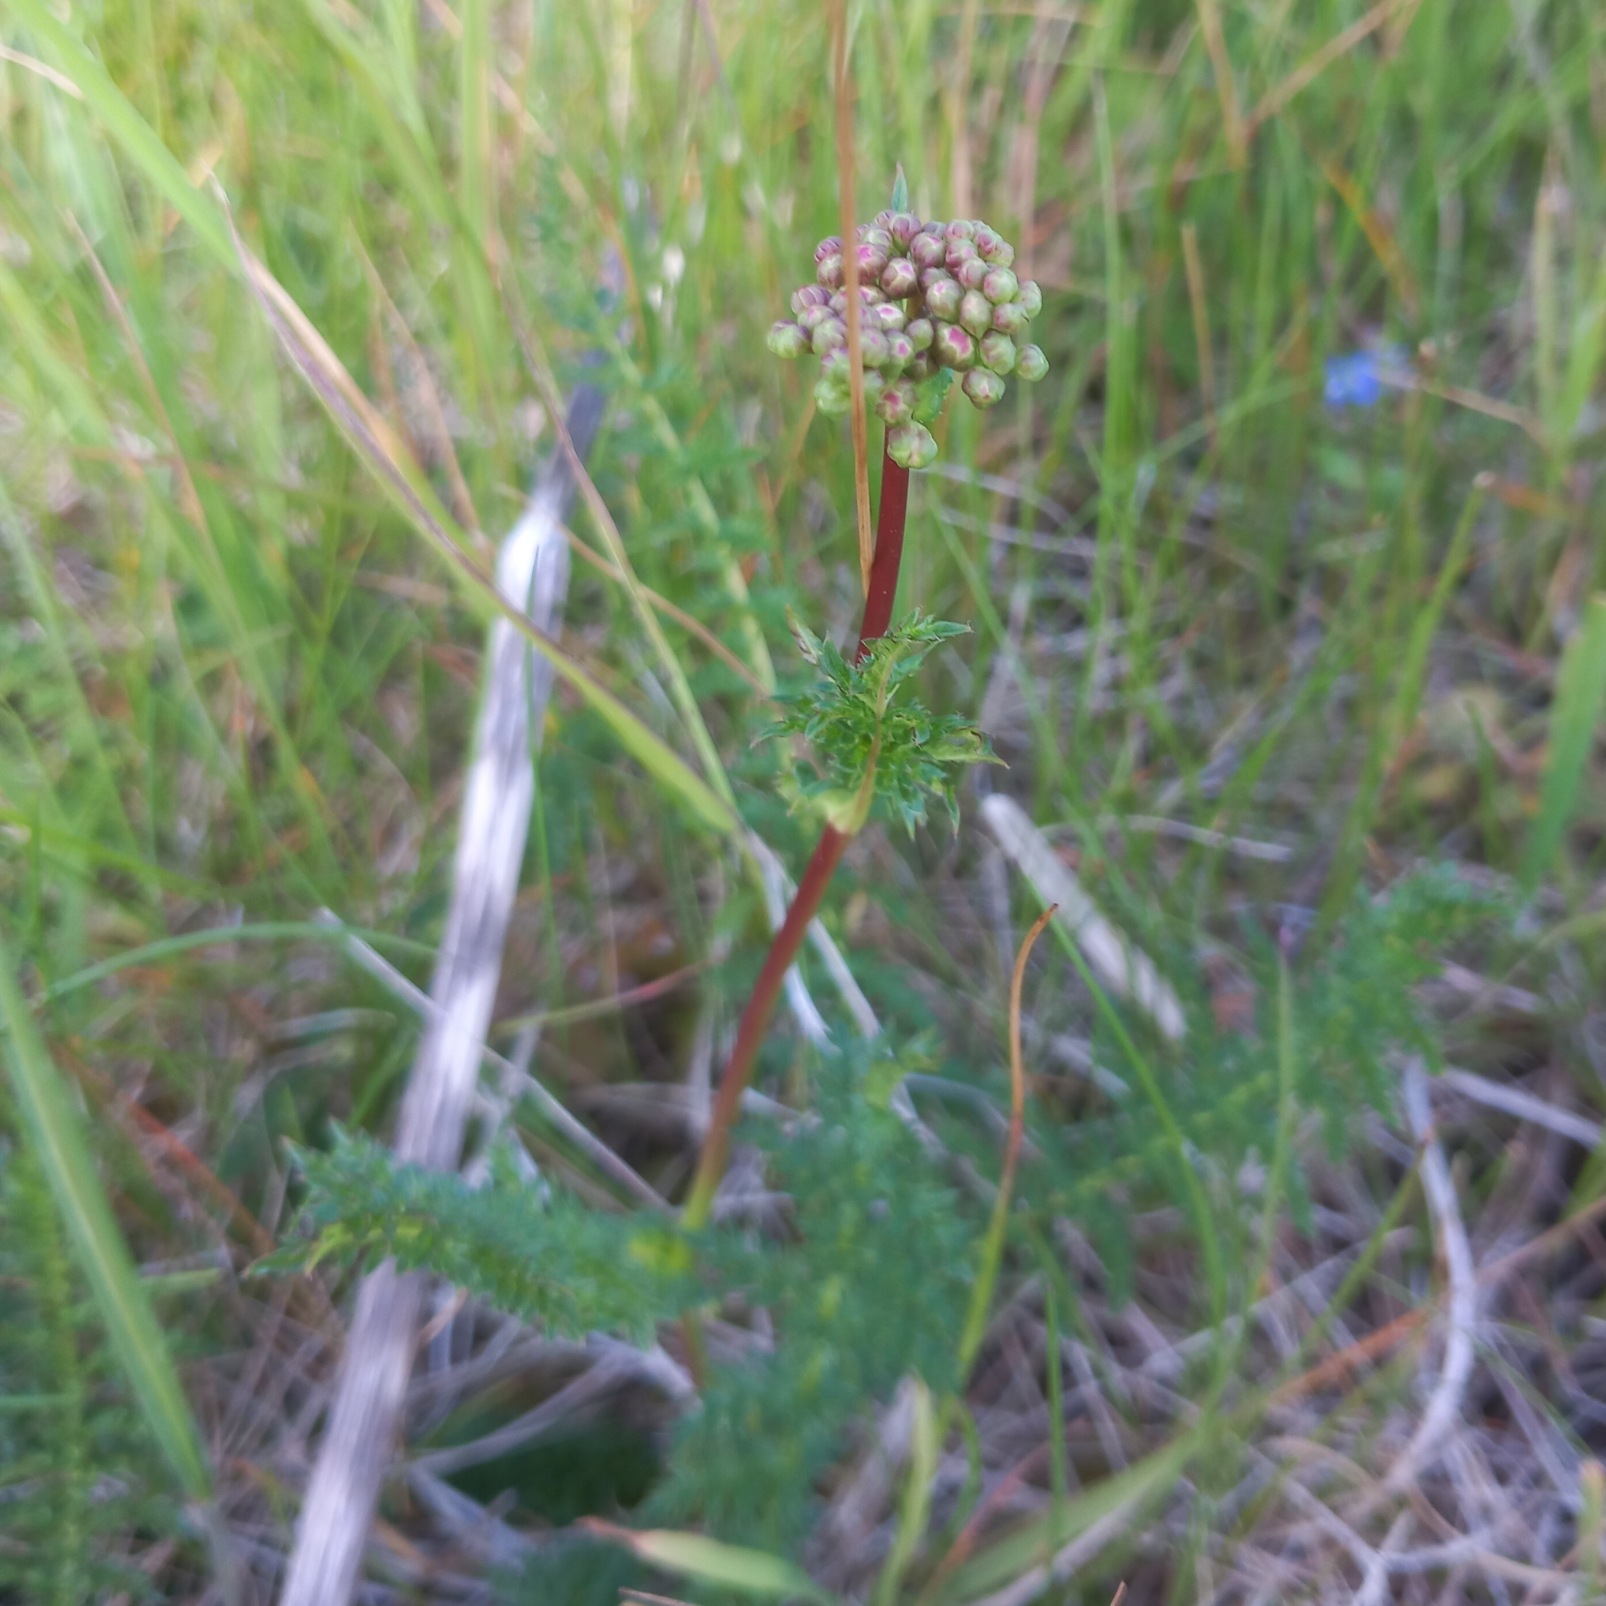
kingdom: Plantae
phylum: Tracheophyta
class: Magnoliopsida
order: Rosales
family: Rosaceae
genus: Filipendula
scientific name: Filipendula vulgaris
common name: Knoldet mjødurt
